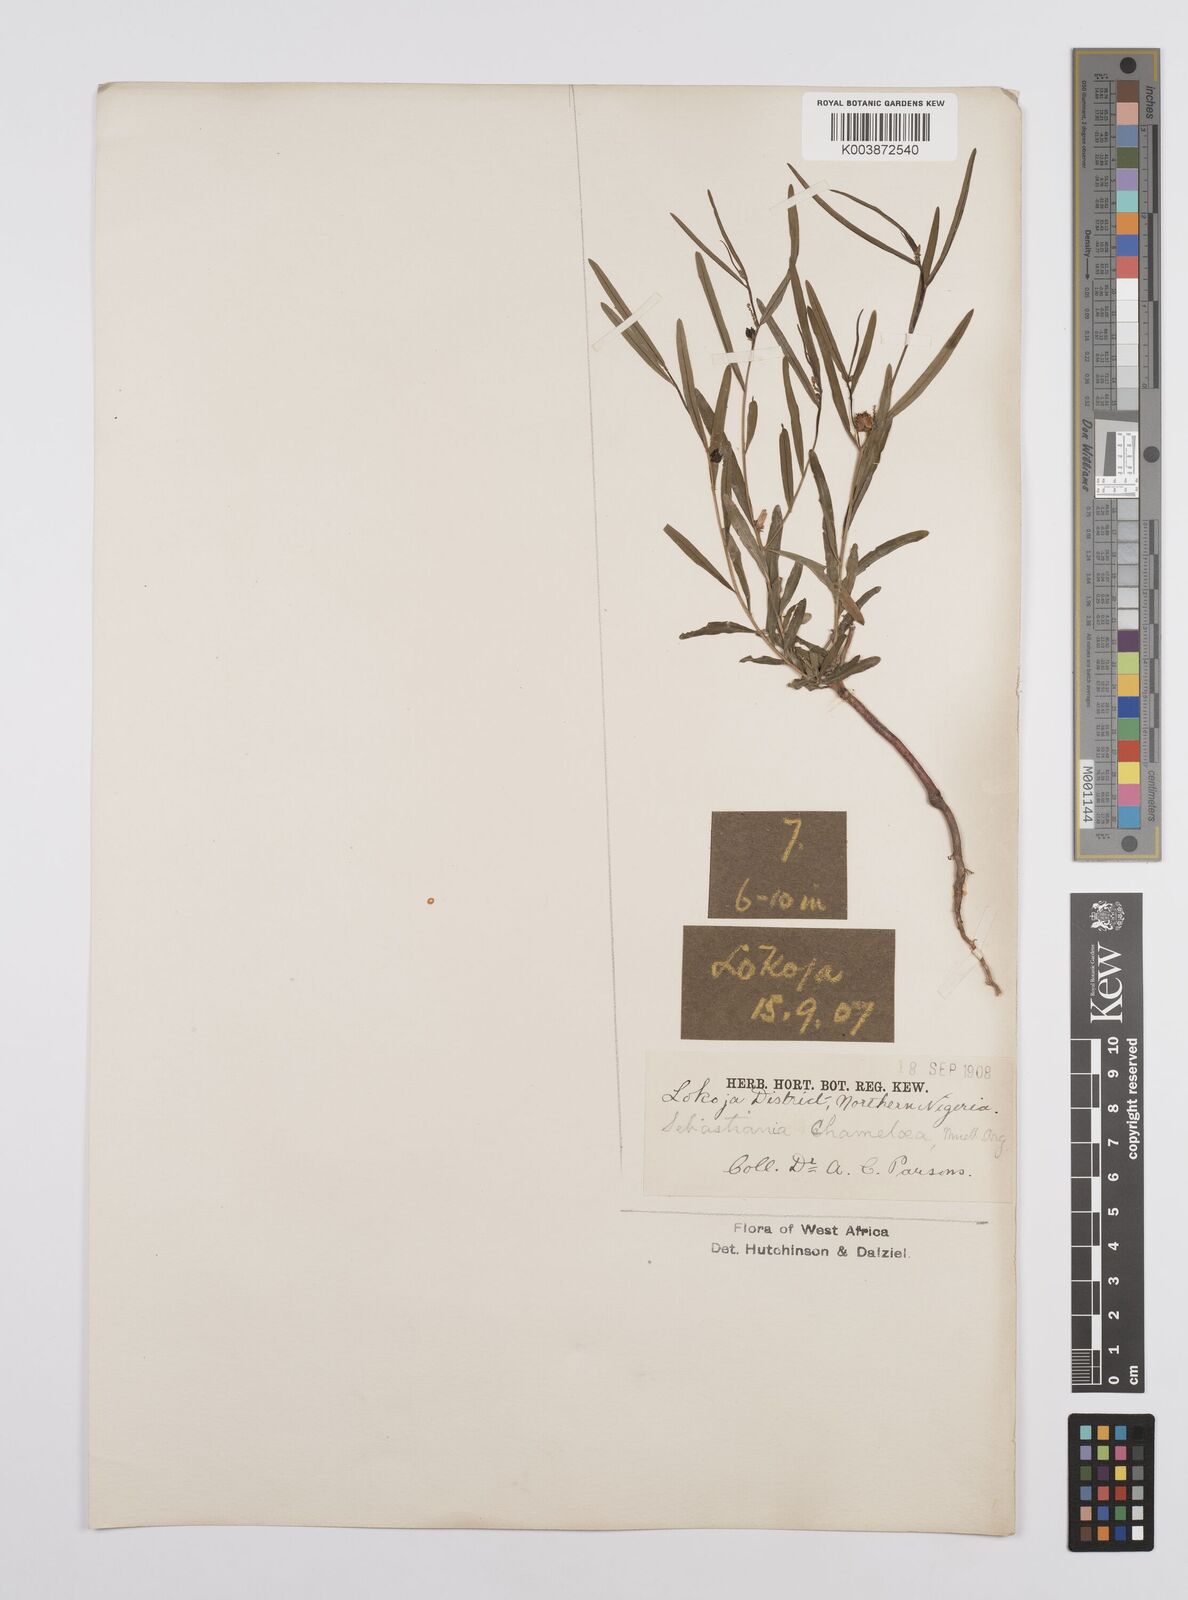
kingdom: Plantae
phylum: Tracheophyta
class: Magnoliopsida
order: Malpighiales
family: Euphorbiaceae
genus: Microstachys
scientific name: Microstachys chamaelea
